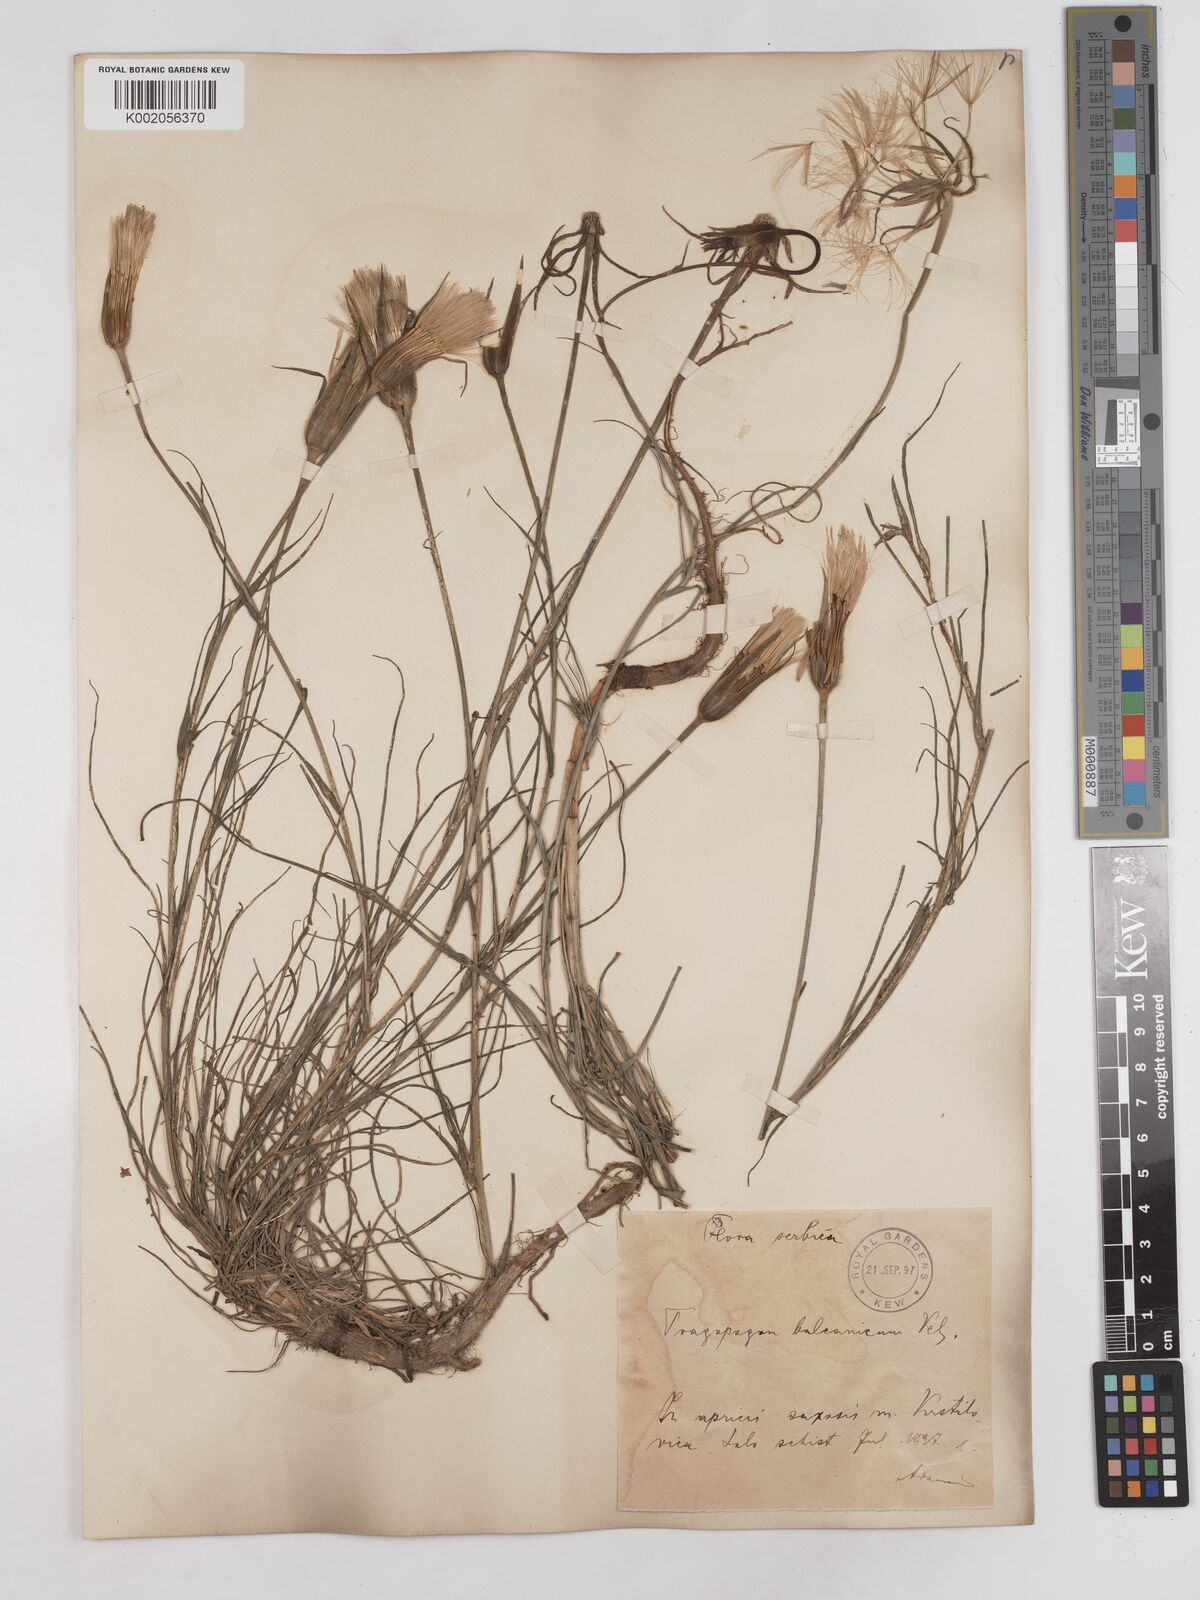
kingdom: Plantae
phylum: Tracheophyta
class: Magnoliopsida
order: Asterales
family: Asteraceae
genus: Tragopogon
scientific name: Tragopogon balcanicus
